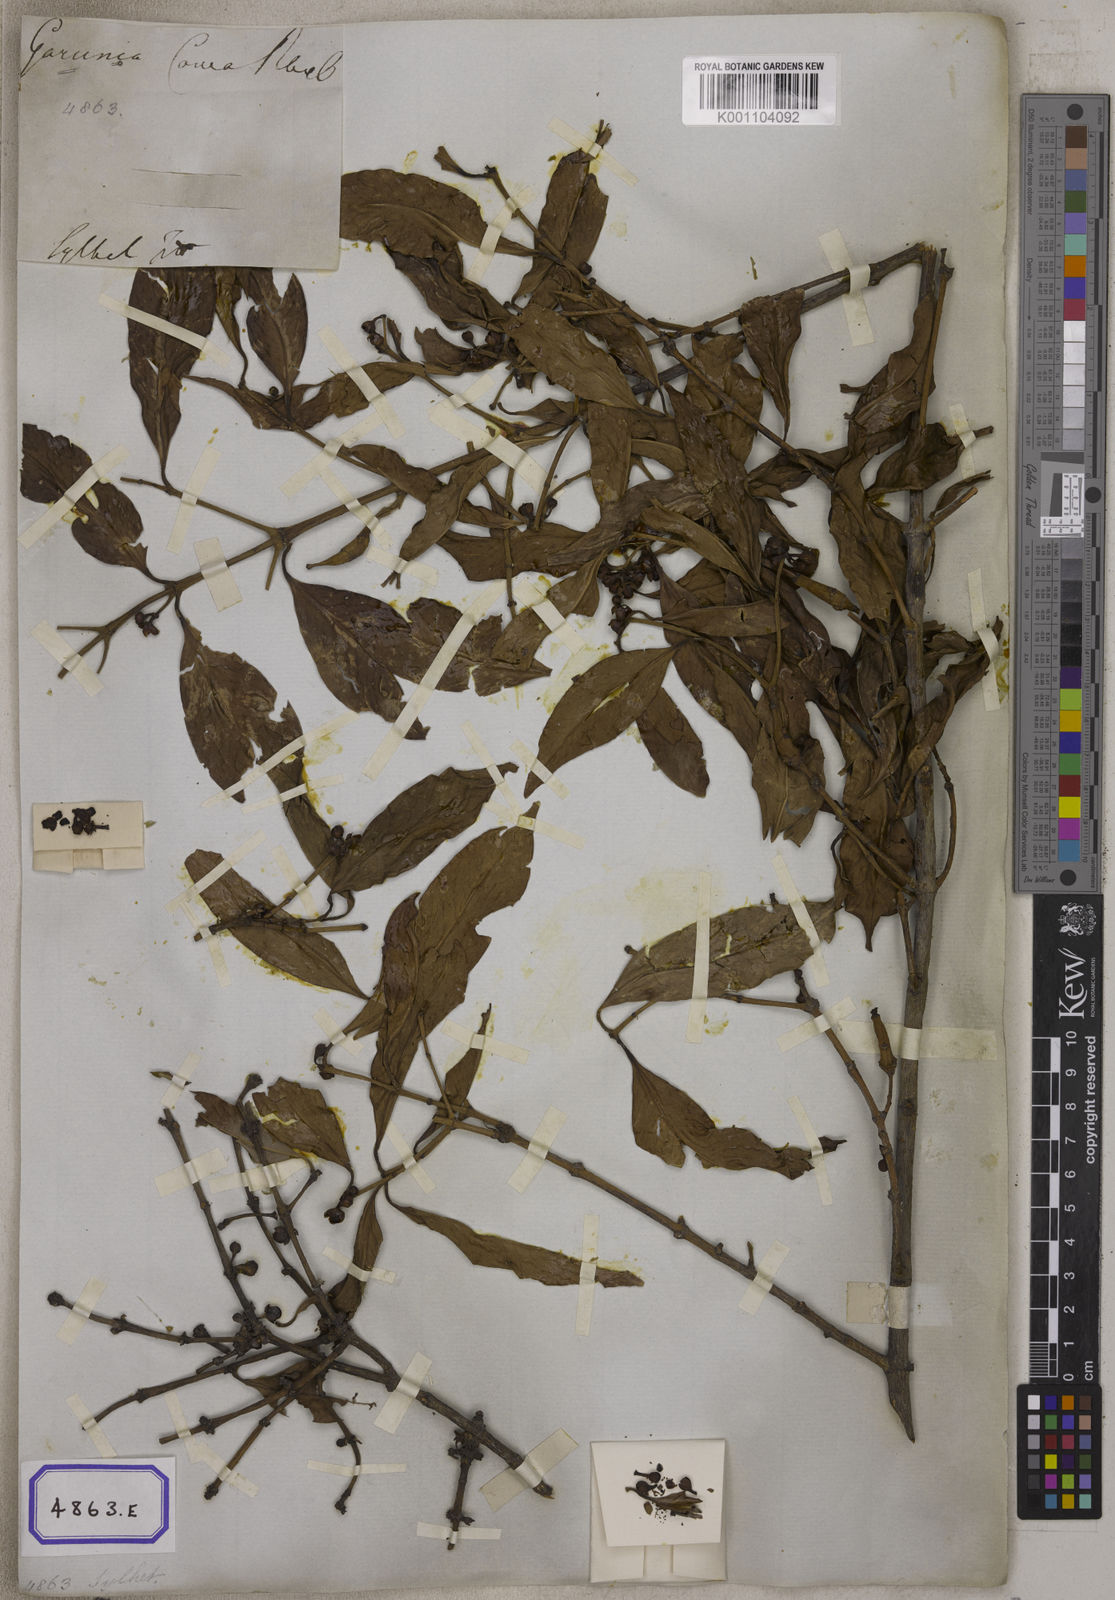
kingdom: Plantae
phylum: Tracheophyta
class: Magnoliopsida
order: Malpighiales
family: Clusiaceae
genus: Garcinia
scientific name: Garcinia
